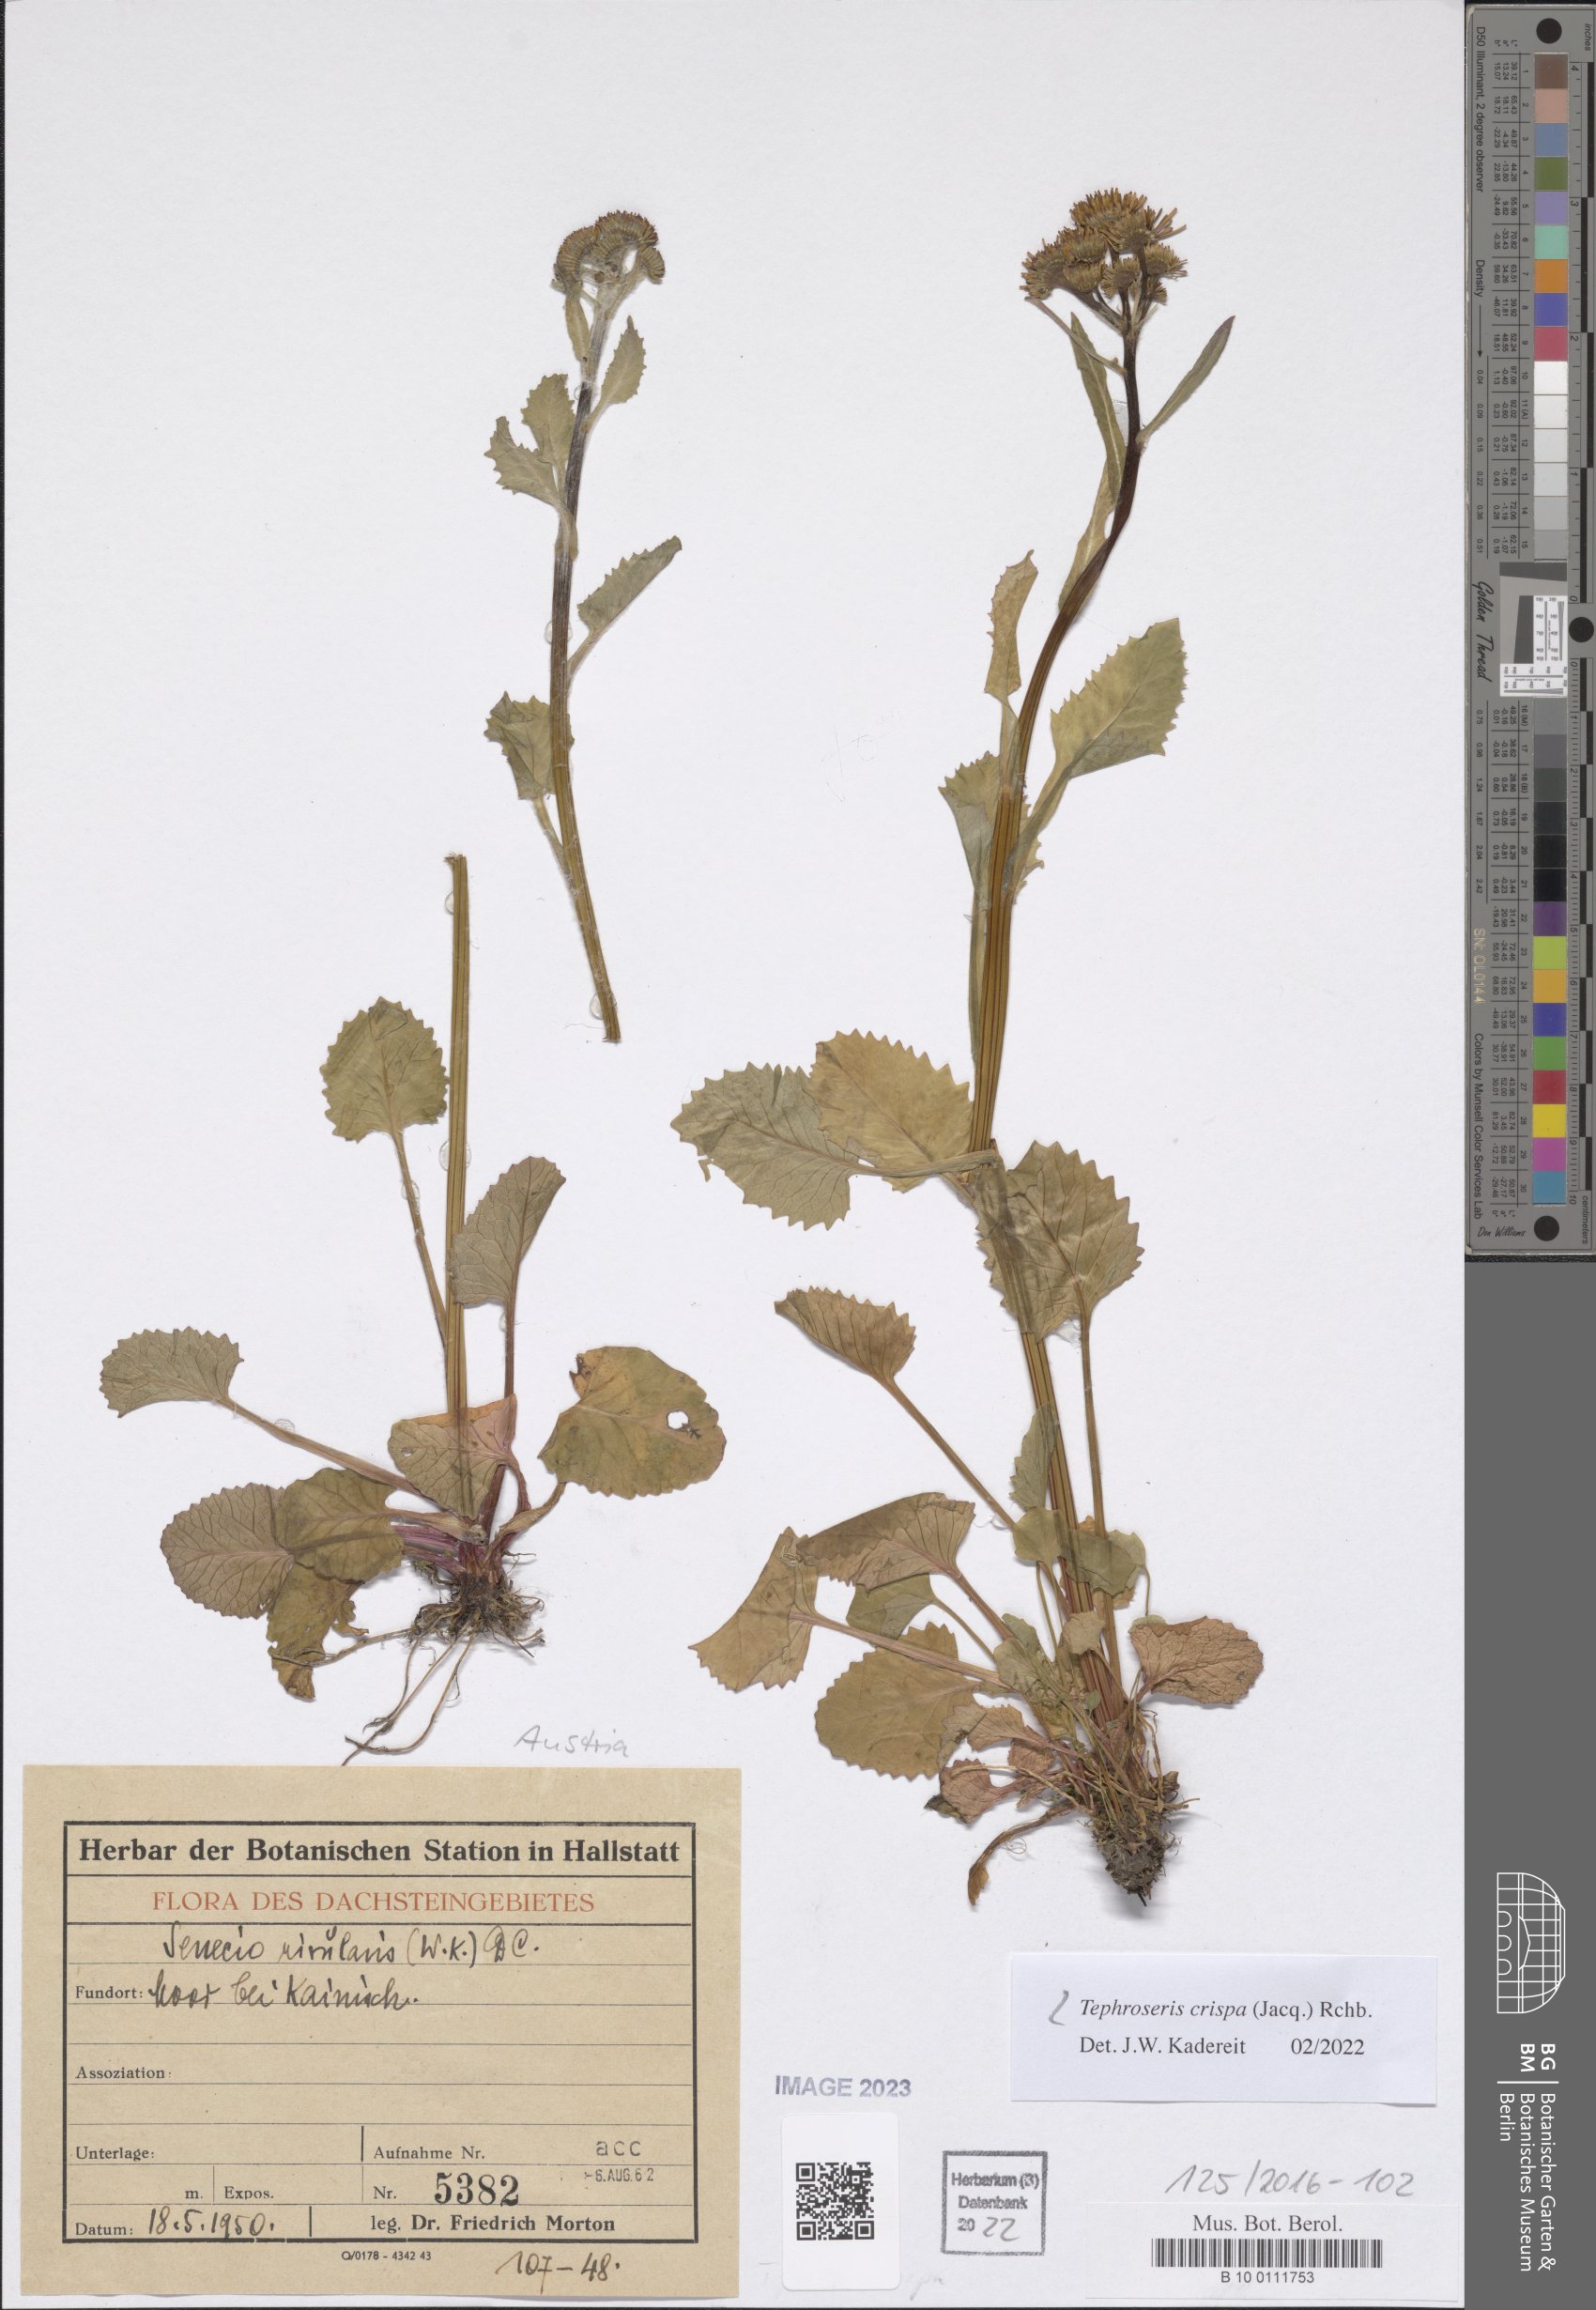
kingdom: Plantae
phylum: Tracheophyta
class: Magnoliopsida
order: Asterales
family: Asteraceae
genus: Tephroseris
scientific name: Tephroseris crispa
